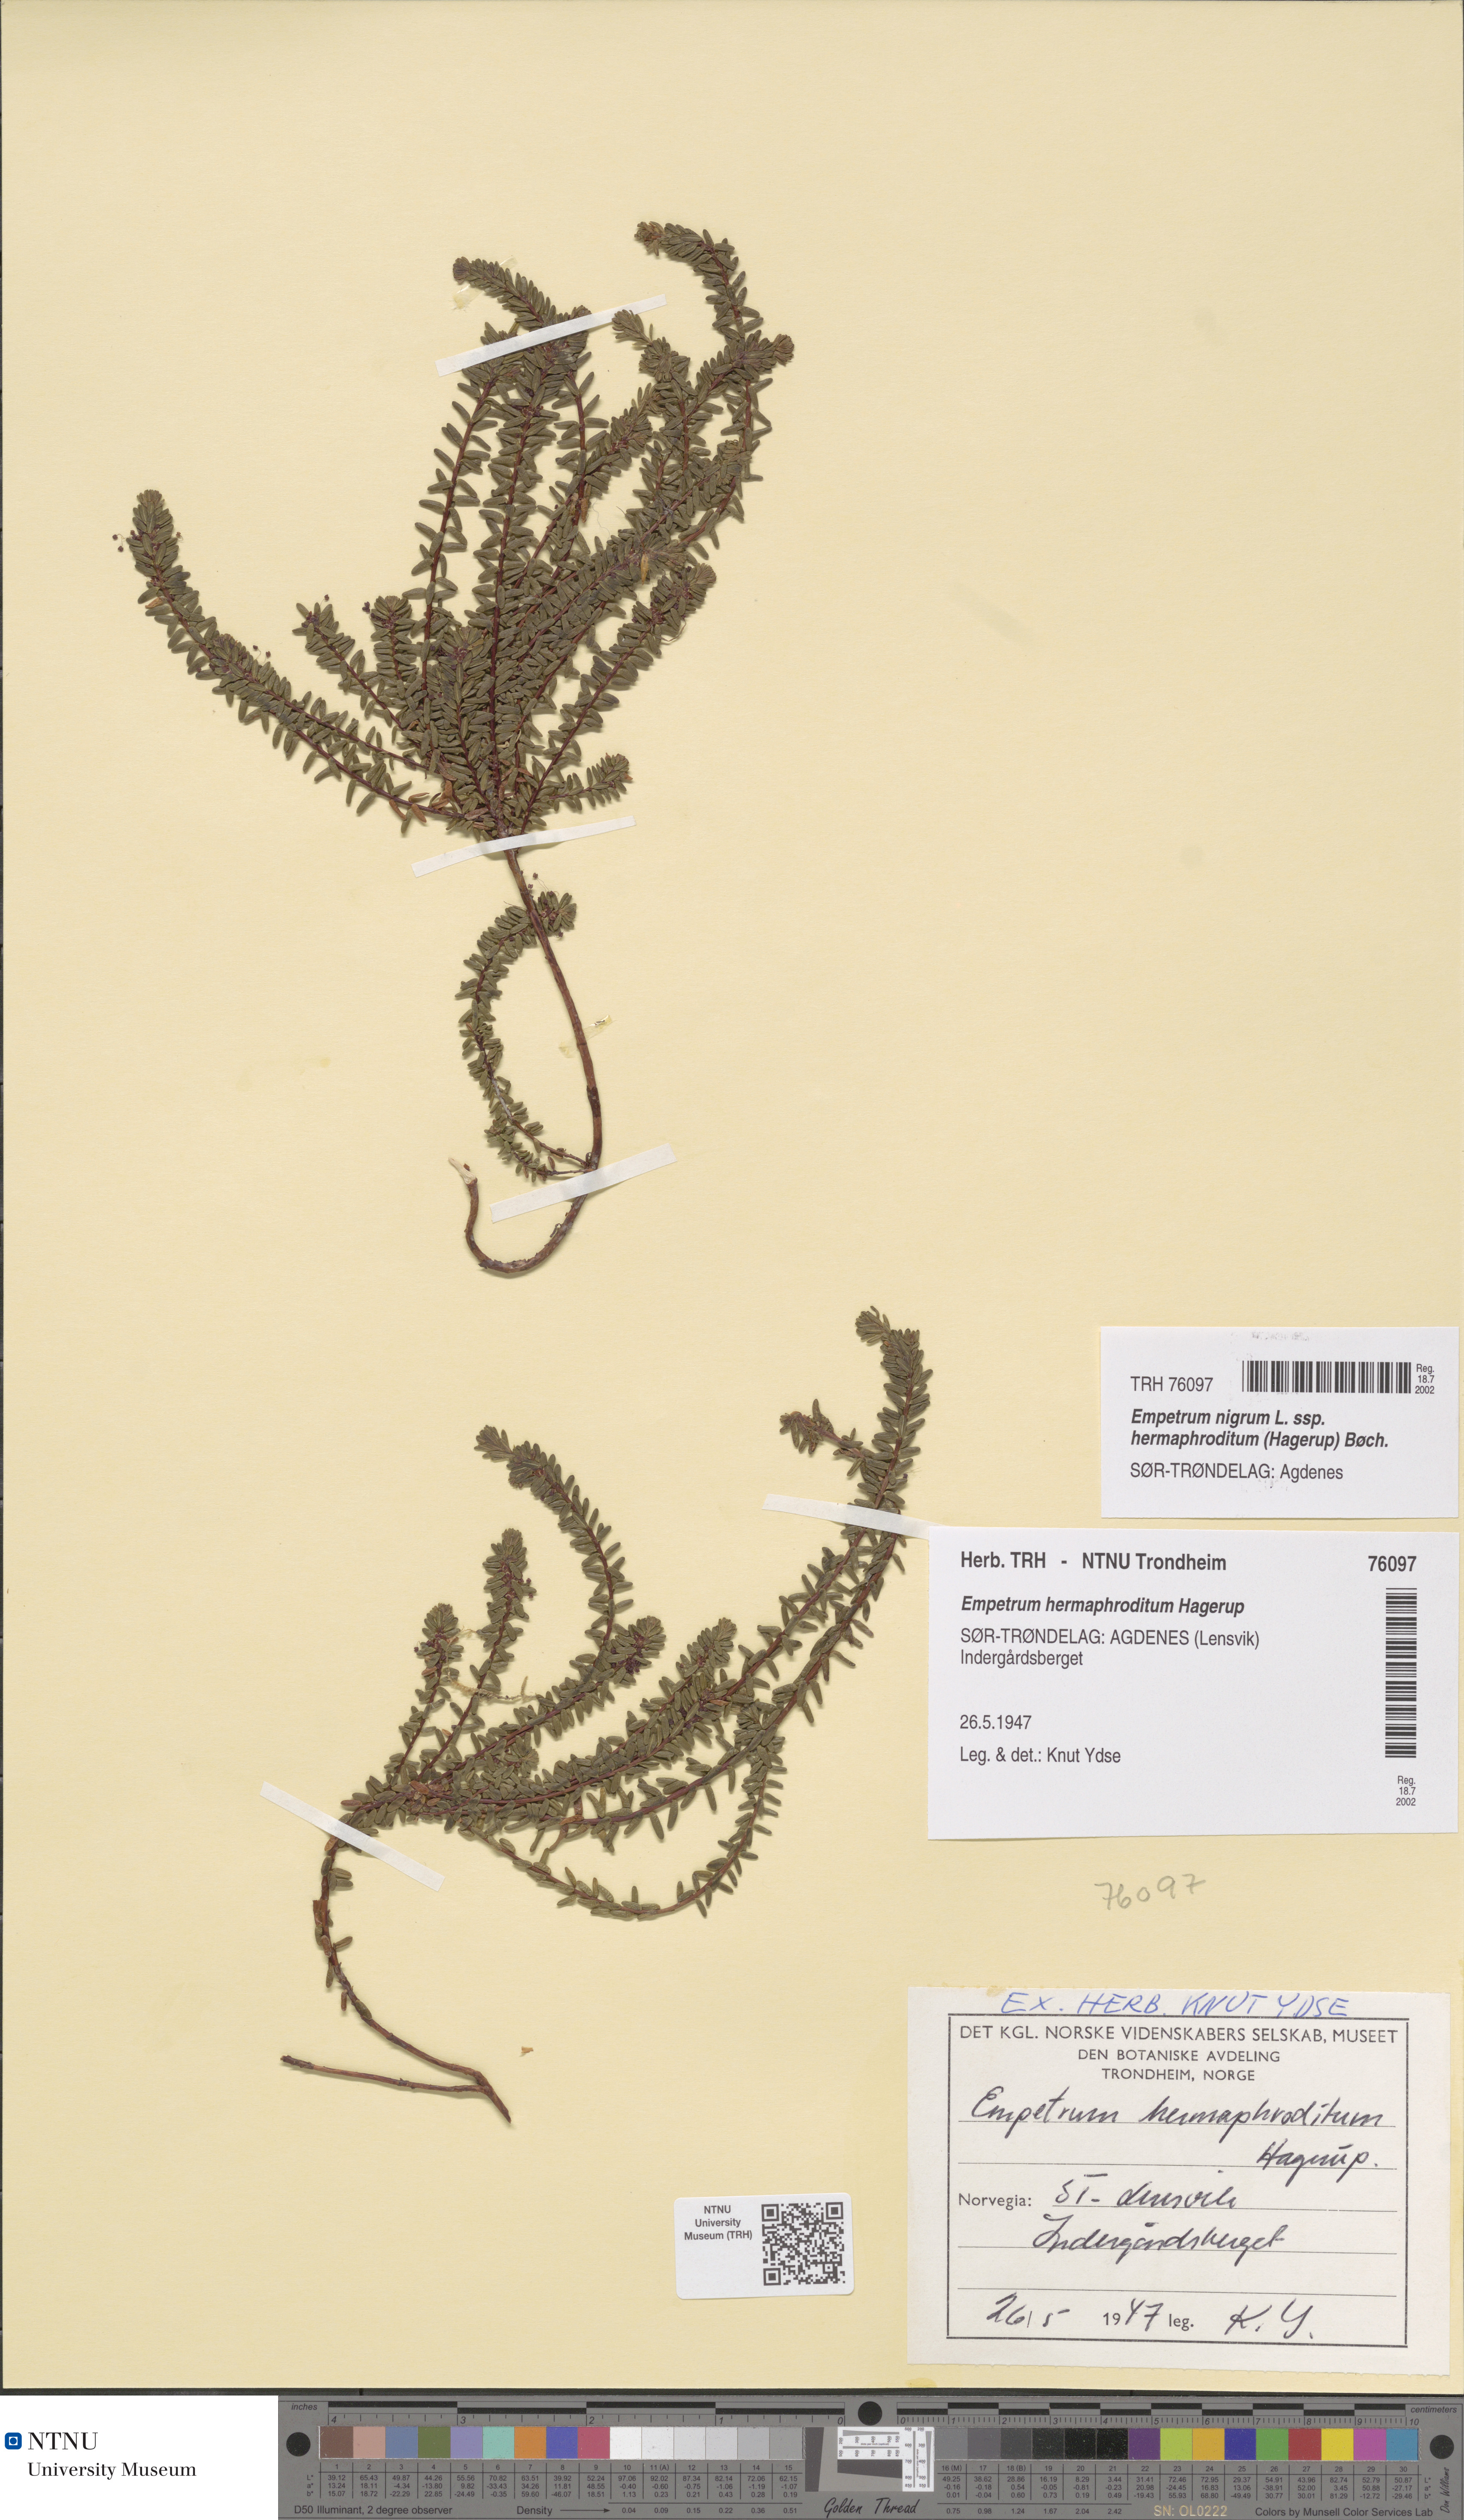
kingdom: Plantae
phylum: Tracheophyta
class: Magnoliopsida
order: Ericales
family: Ericaceae
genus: Empetrum
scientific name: Empetrum hermaphroditum
